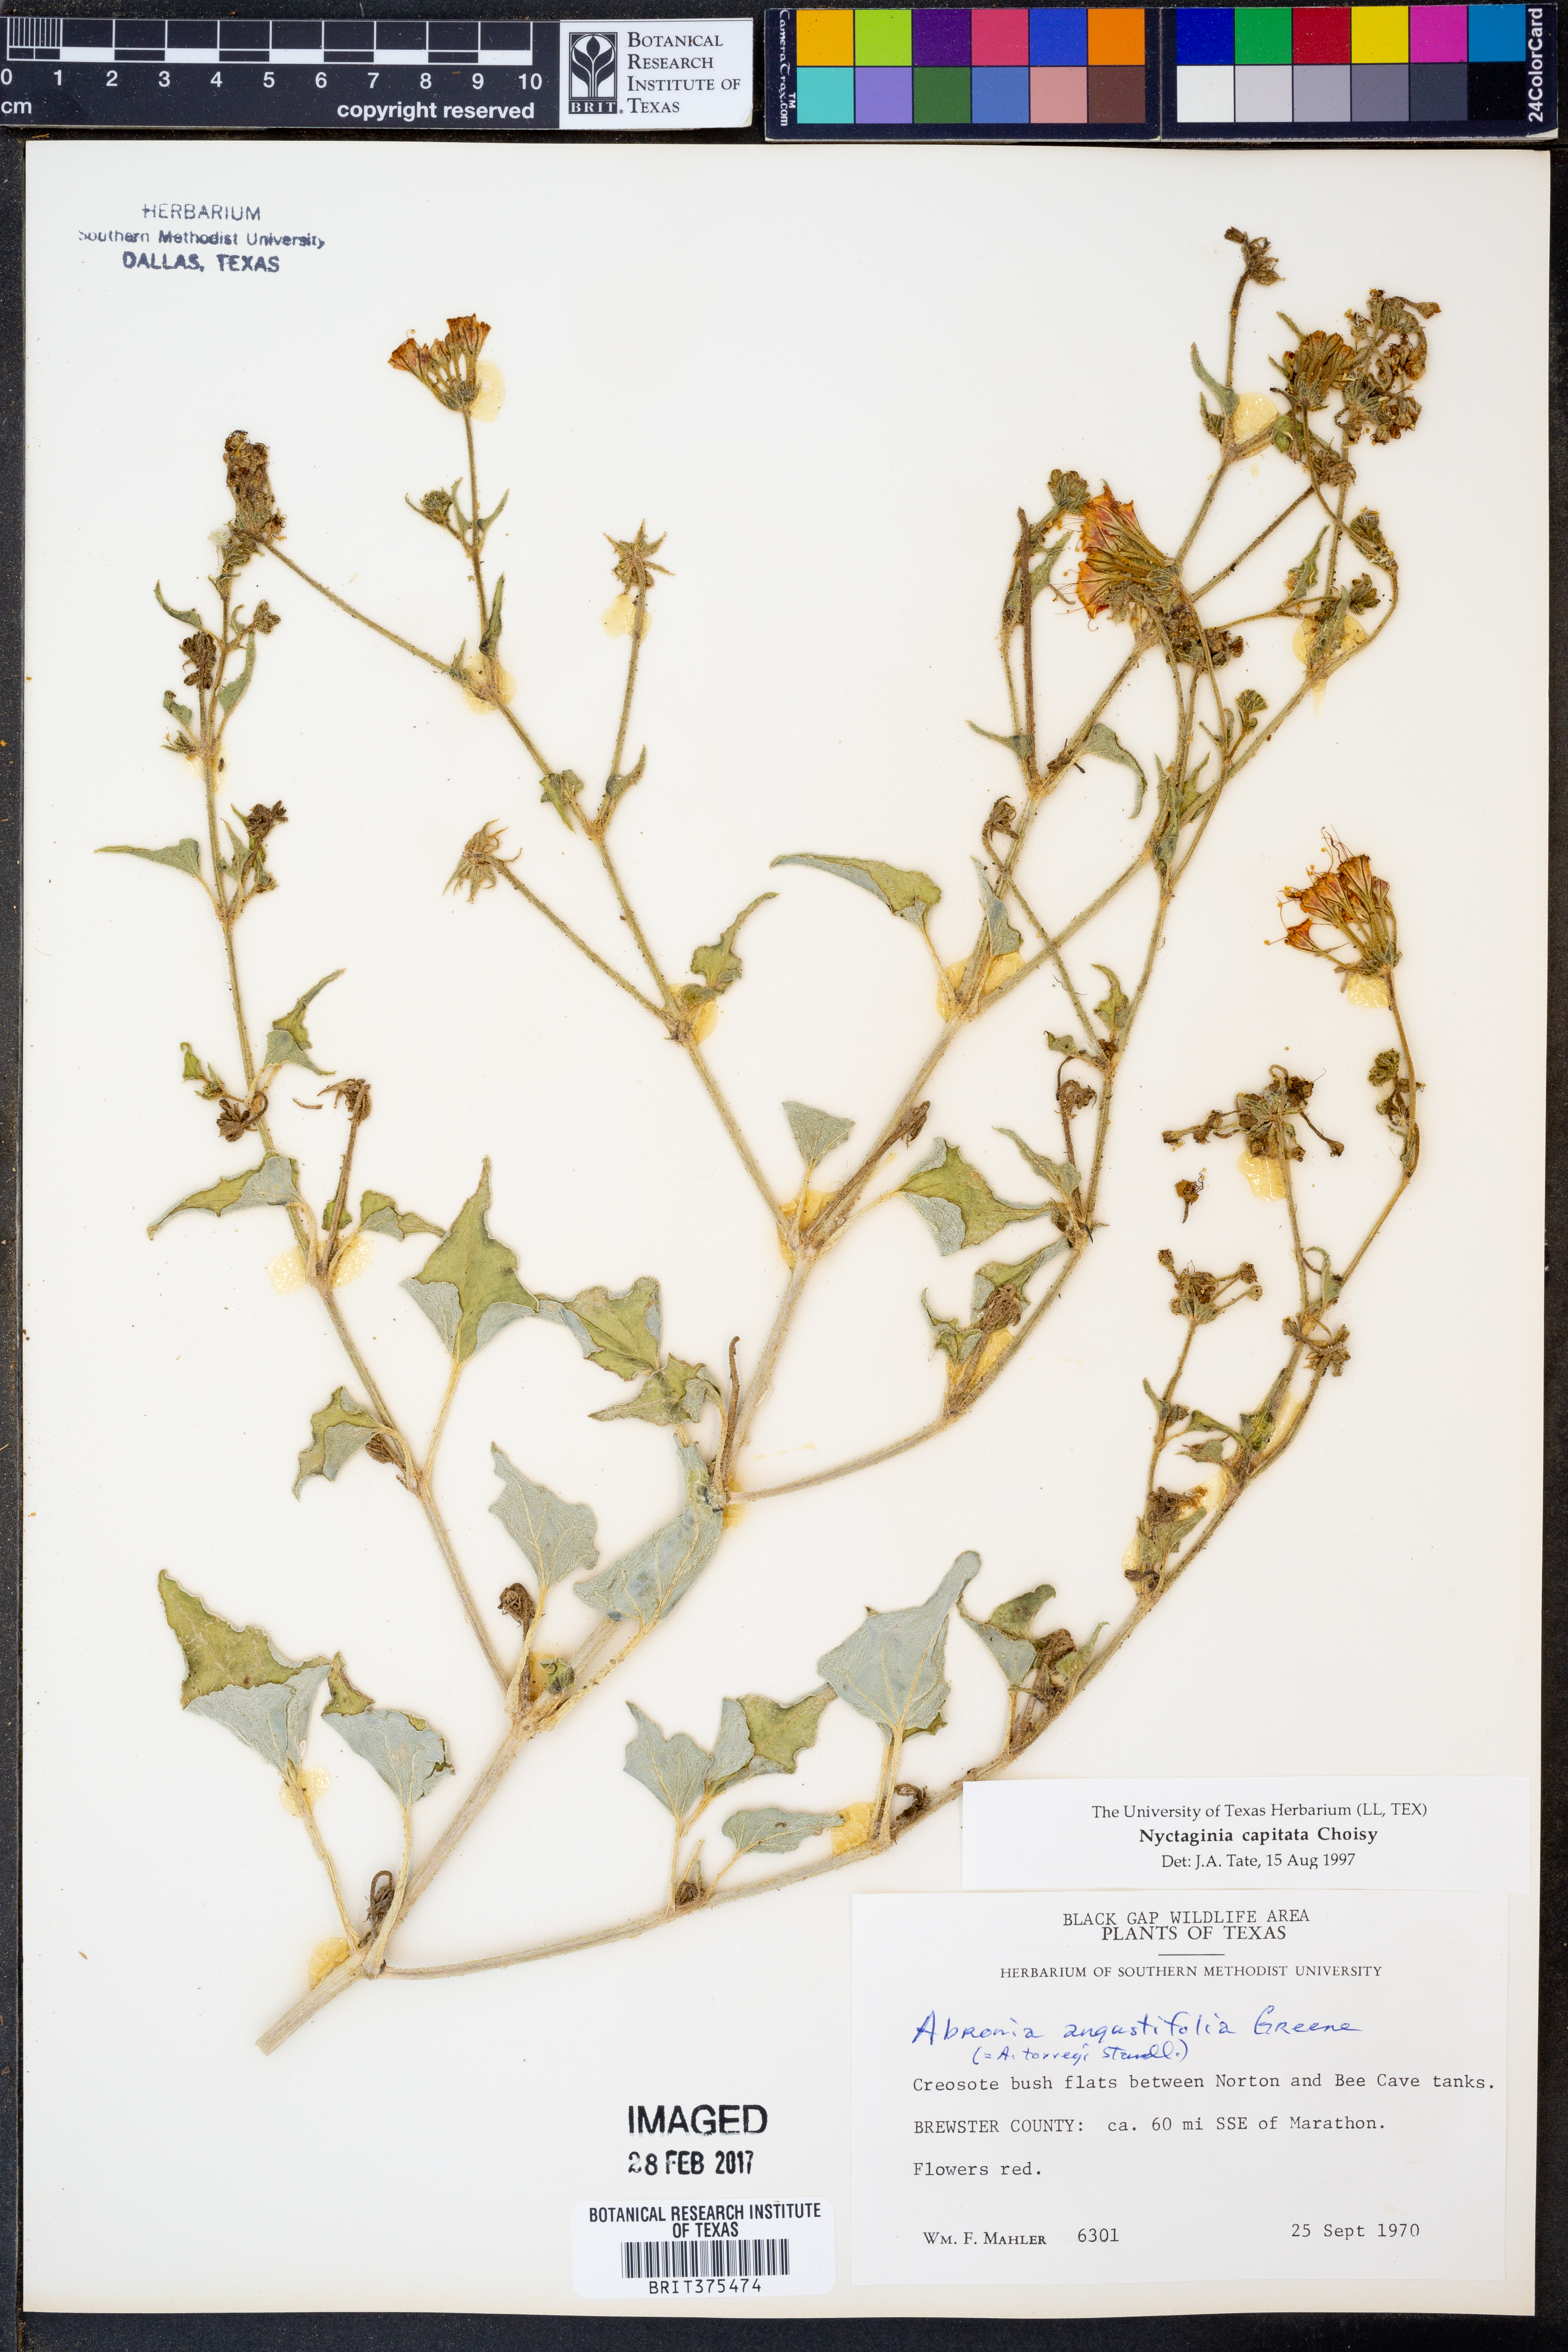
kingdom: Plantae
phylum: Tracheophyta
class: Magnoliopsida
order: Caryophyllales
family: Nyctaginaceae
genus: Nyctaginia
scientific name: Nyctaginia capitata
